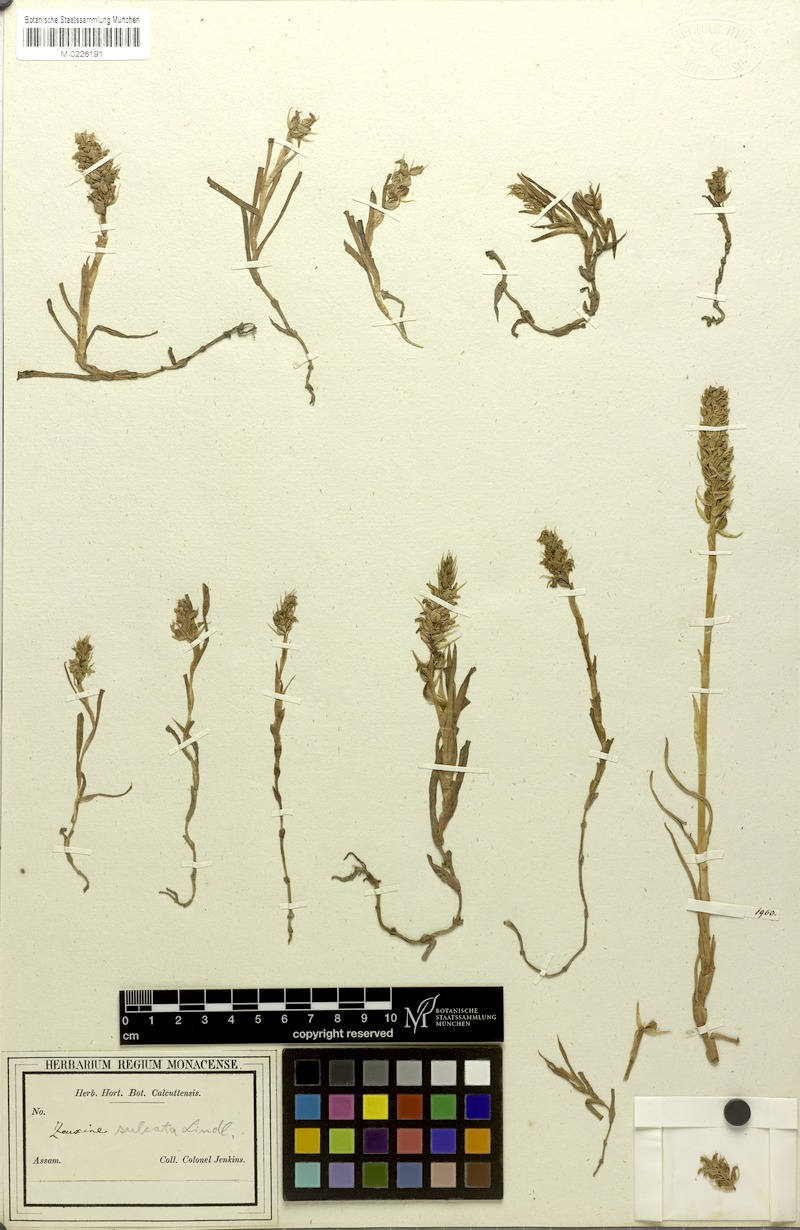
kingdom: Plantae
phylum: Tracheophyta
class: Liliopsida
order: Asparagales
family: Orchidaceae
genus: Zeuxine
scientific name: Zeuxine strateumatica
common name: Soldier's orchid
